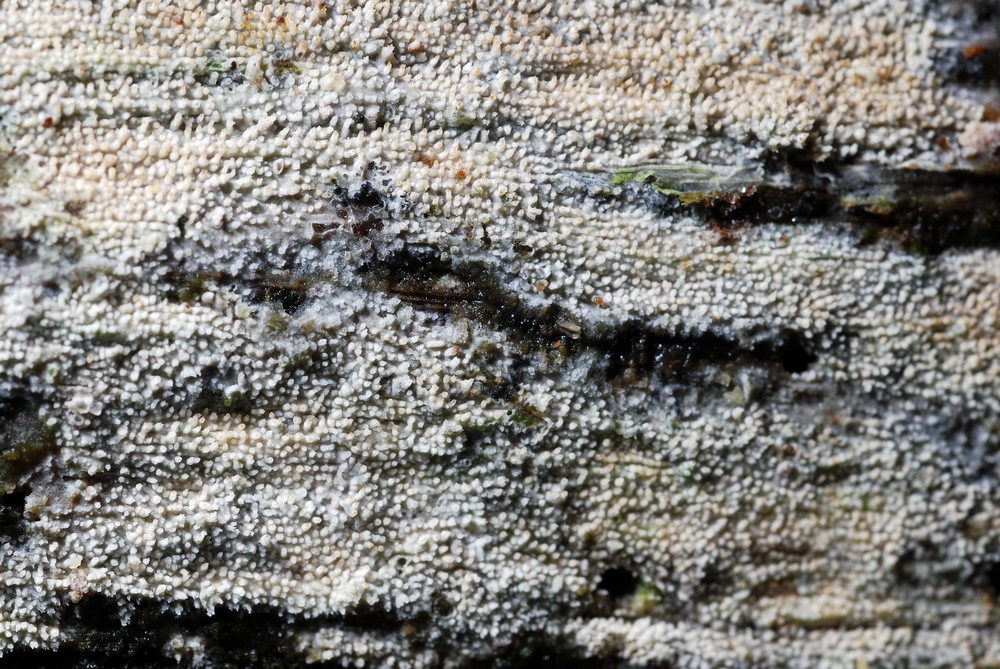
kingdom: Fungi
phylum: Basidiomycota
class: Agaricomycetes
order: Hymenochaetales
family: Hyphodontiaceae
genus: Hyphodontia
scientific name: Hyphodontia quercina
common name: ege-tandsvamp
